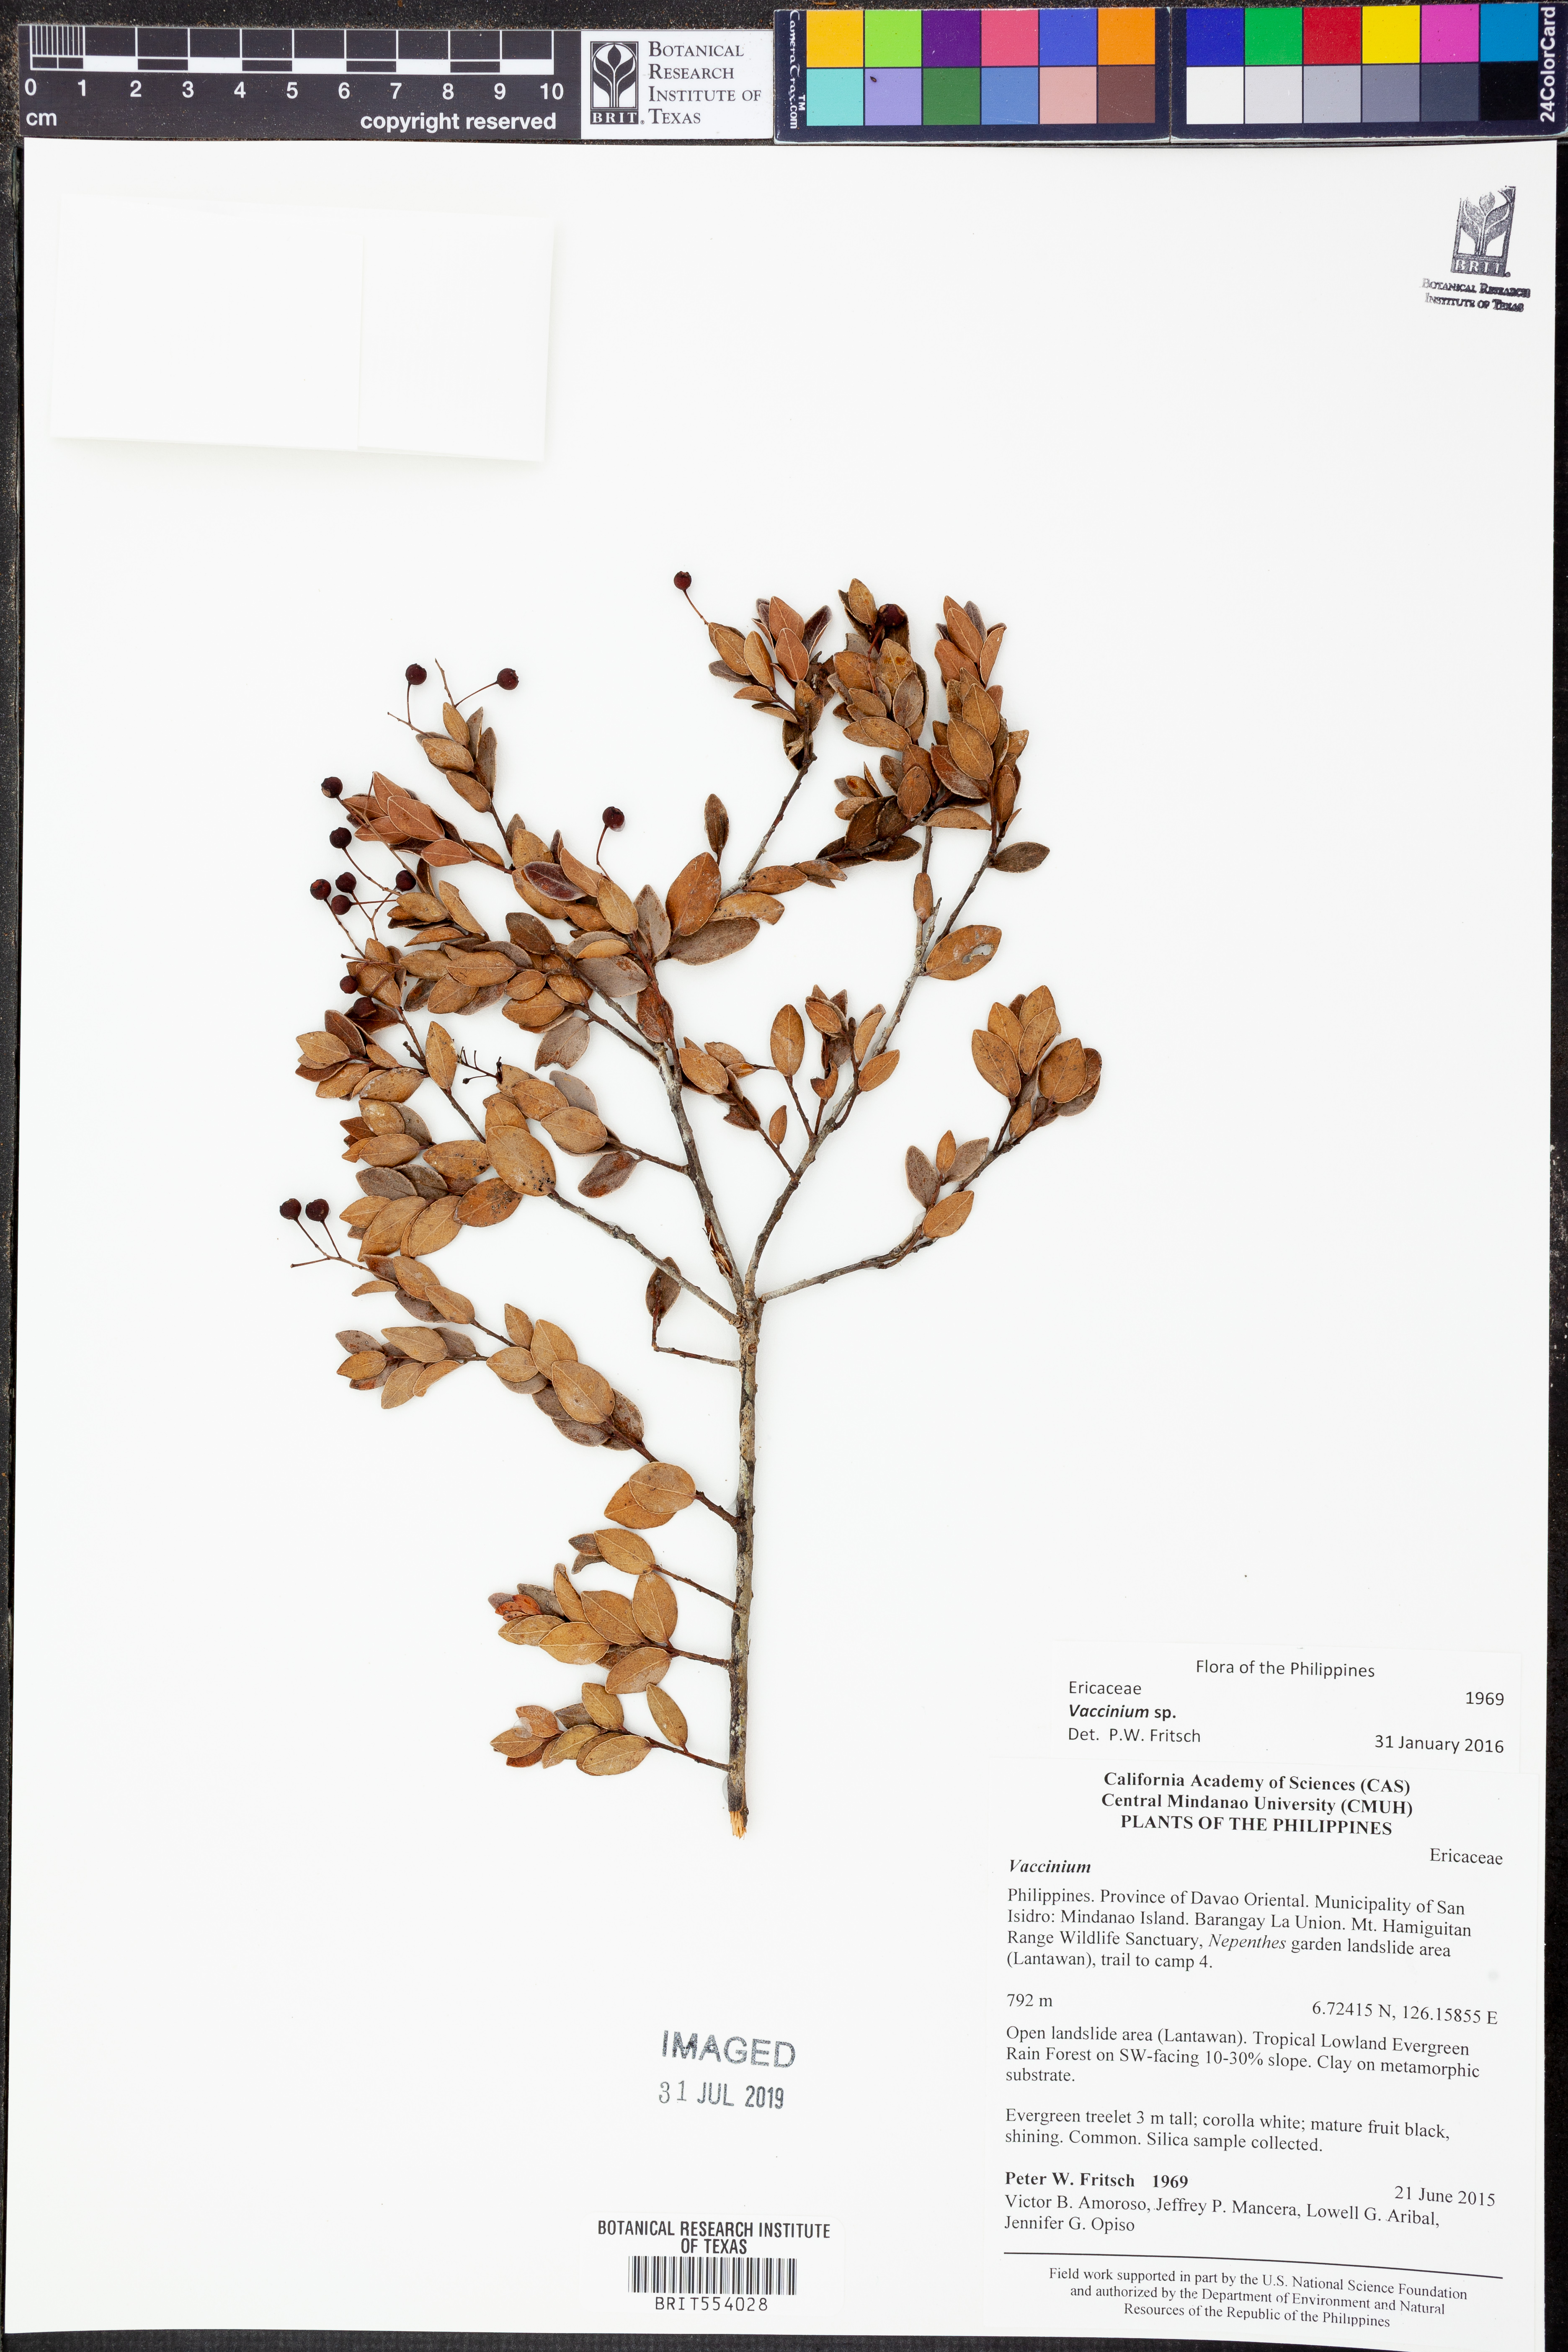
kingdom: Plantae
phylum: Tracheophyta
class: Magnoliopsida
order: Ericales
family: Ericaceae
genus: Vaccinium
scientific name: Vaccinium
